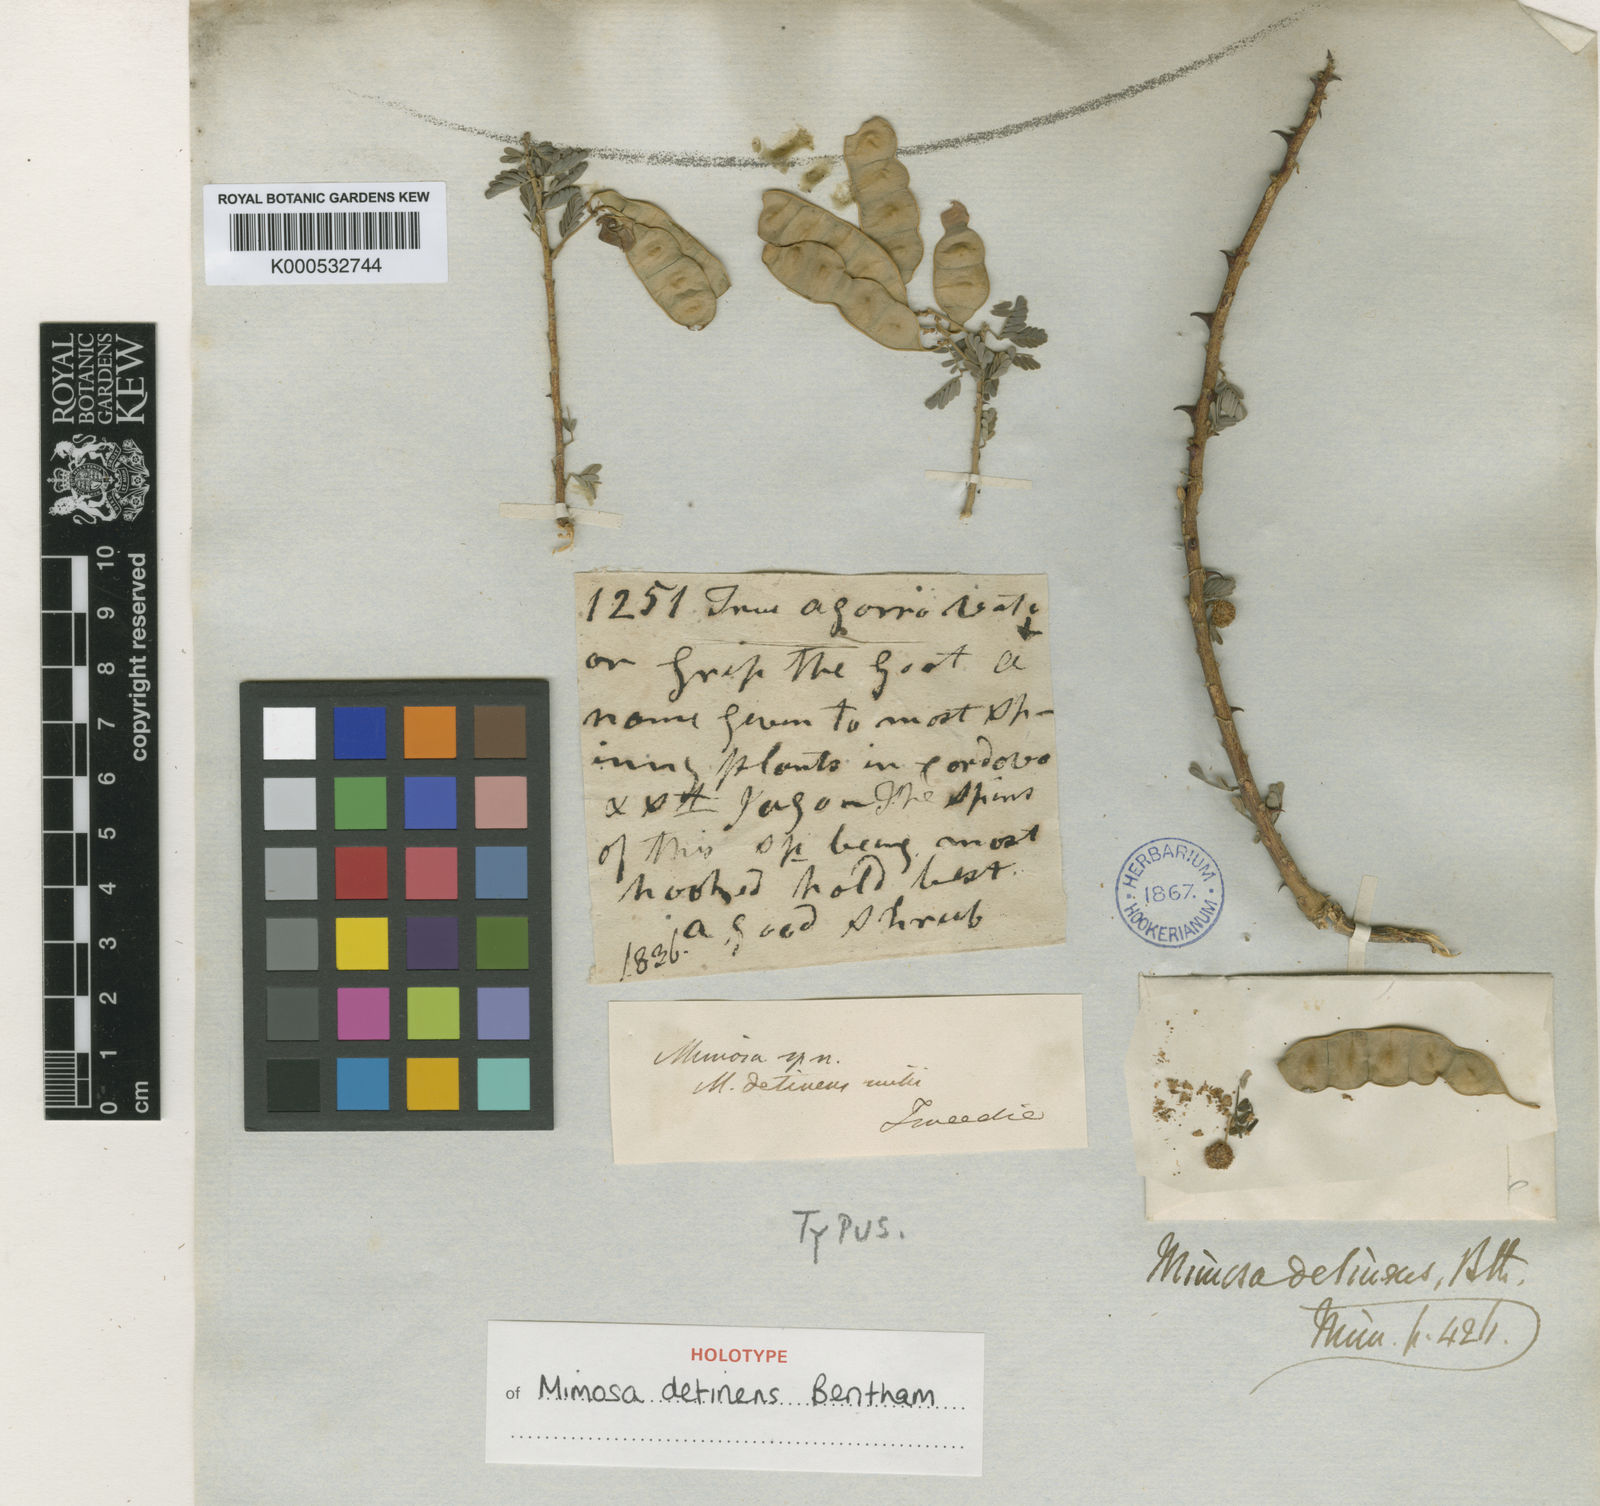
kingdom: Plantae
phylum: Tracheophyta
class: Magnoliopsida
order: Fabales
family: Fabaceae
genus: Mimosa
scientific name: Mimosa detinens
